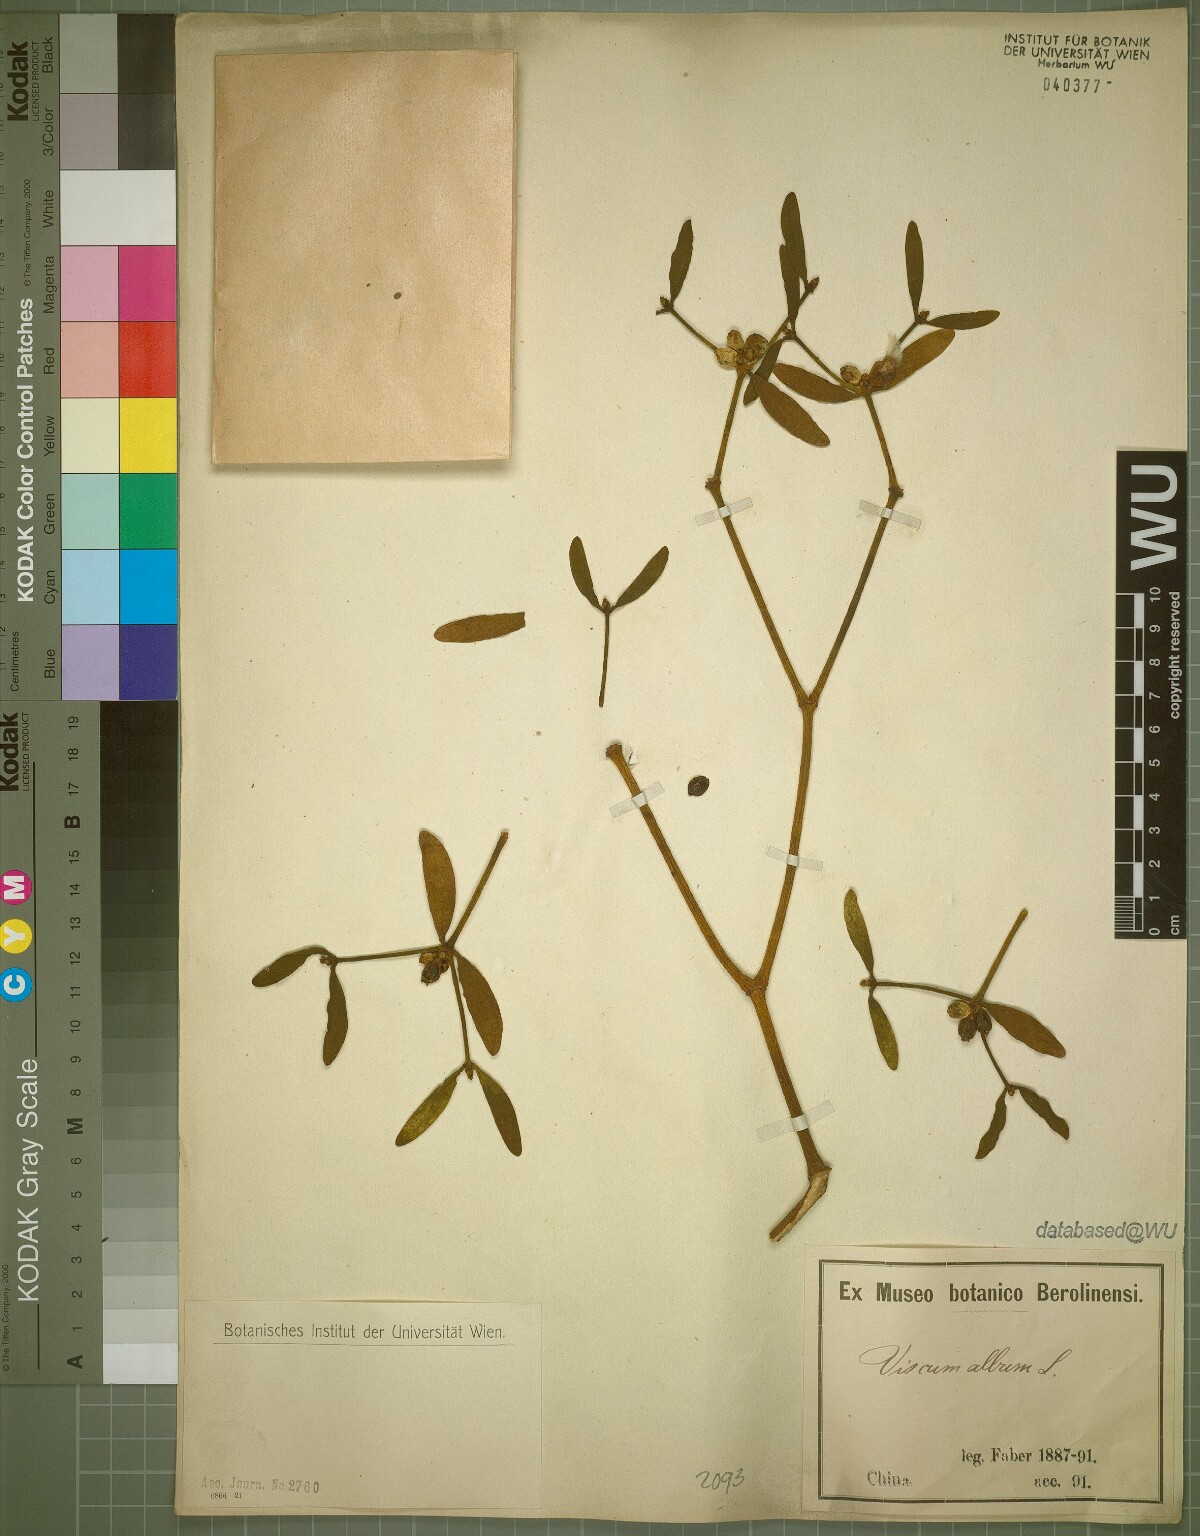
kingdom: Plantae
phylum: Tracheophyta
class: Magnoliopsida
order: Santalales
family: Viscaceae
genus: Viscum
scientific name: Viscum album
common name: Mistletoe
